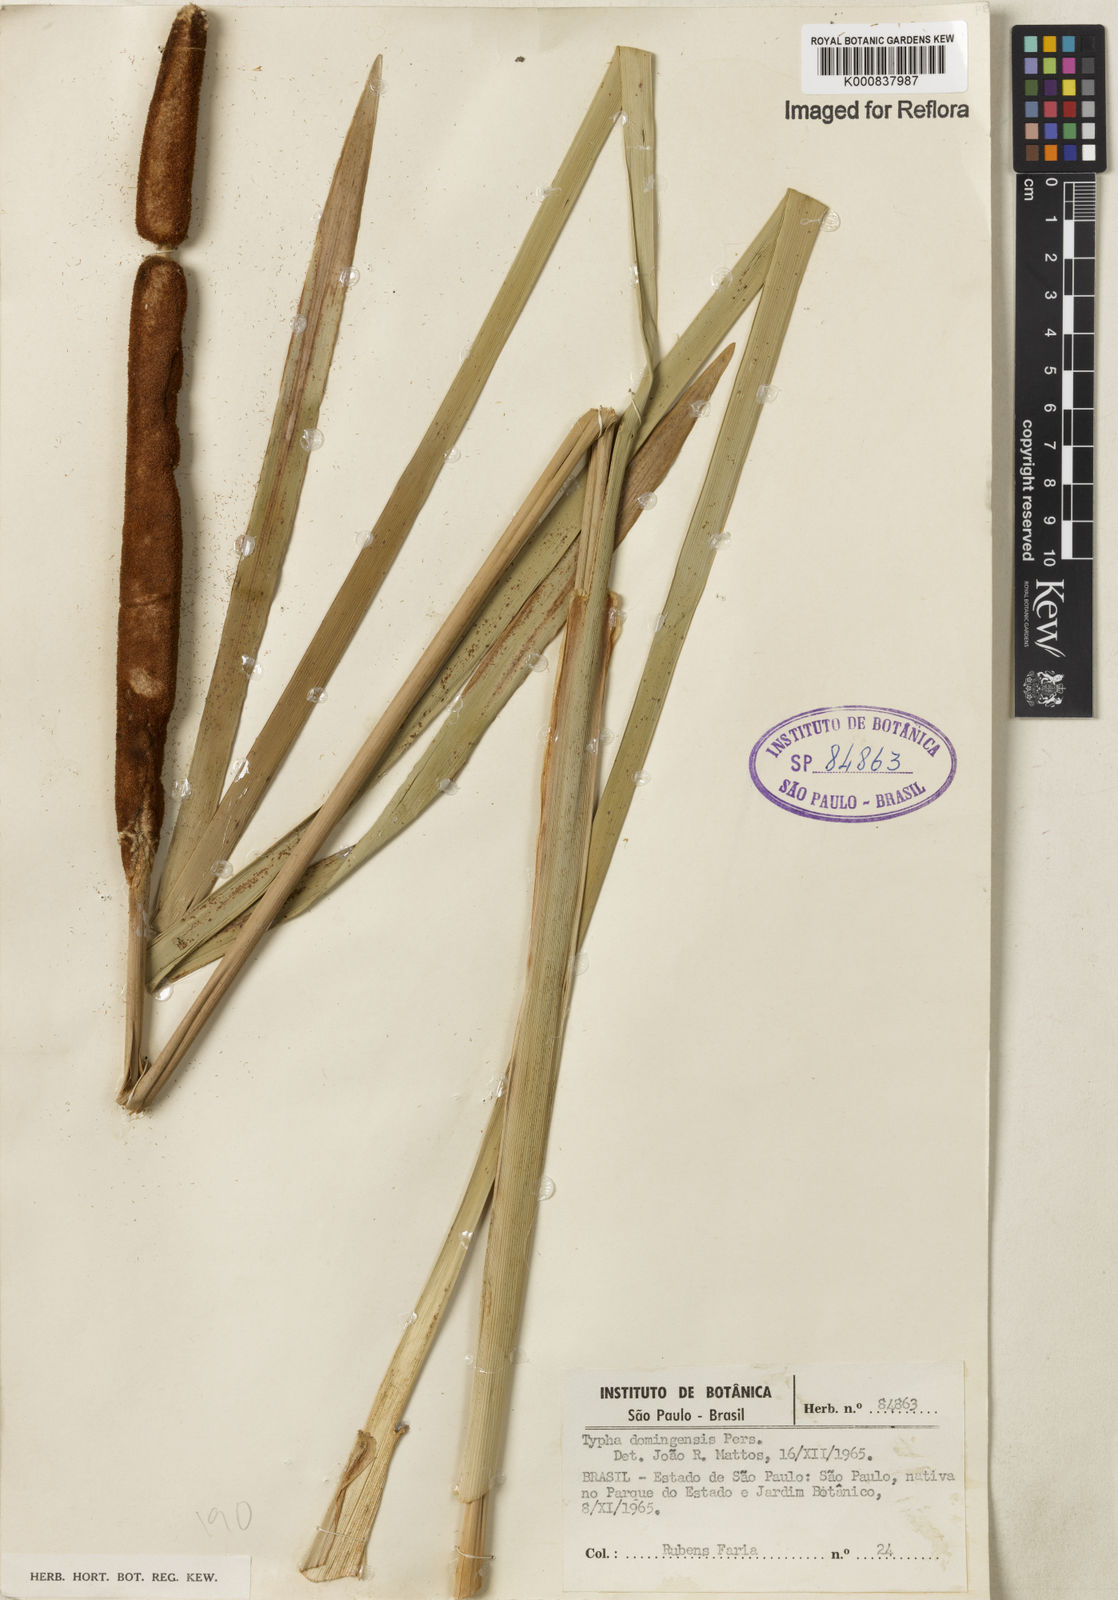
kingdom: Plantae
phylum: Tracheophyta
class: Liliopsida
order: Poales
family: Typhaceae
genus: Typha
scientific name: Typha
